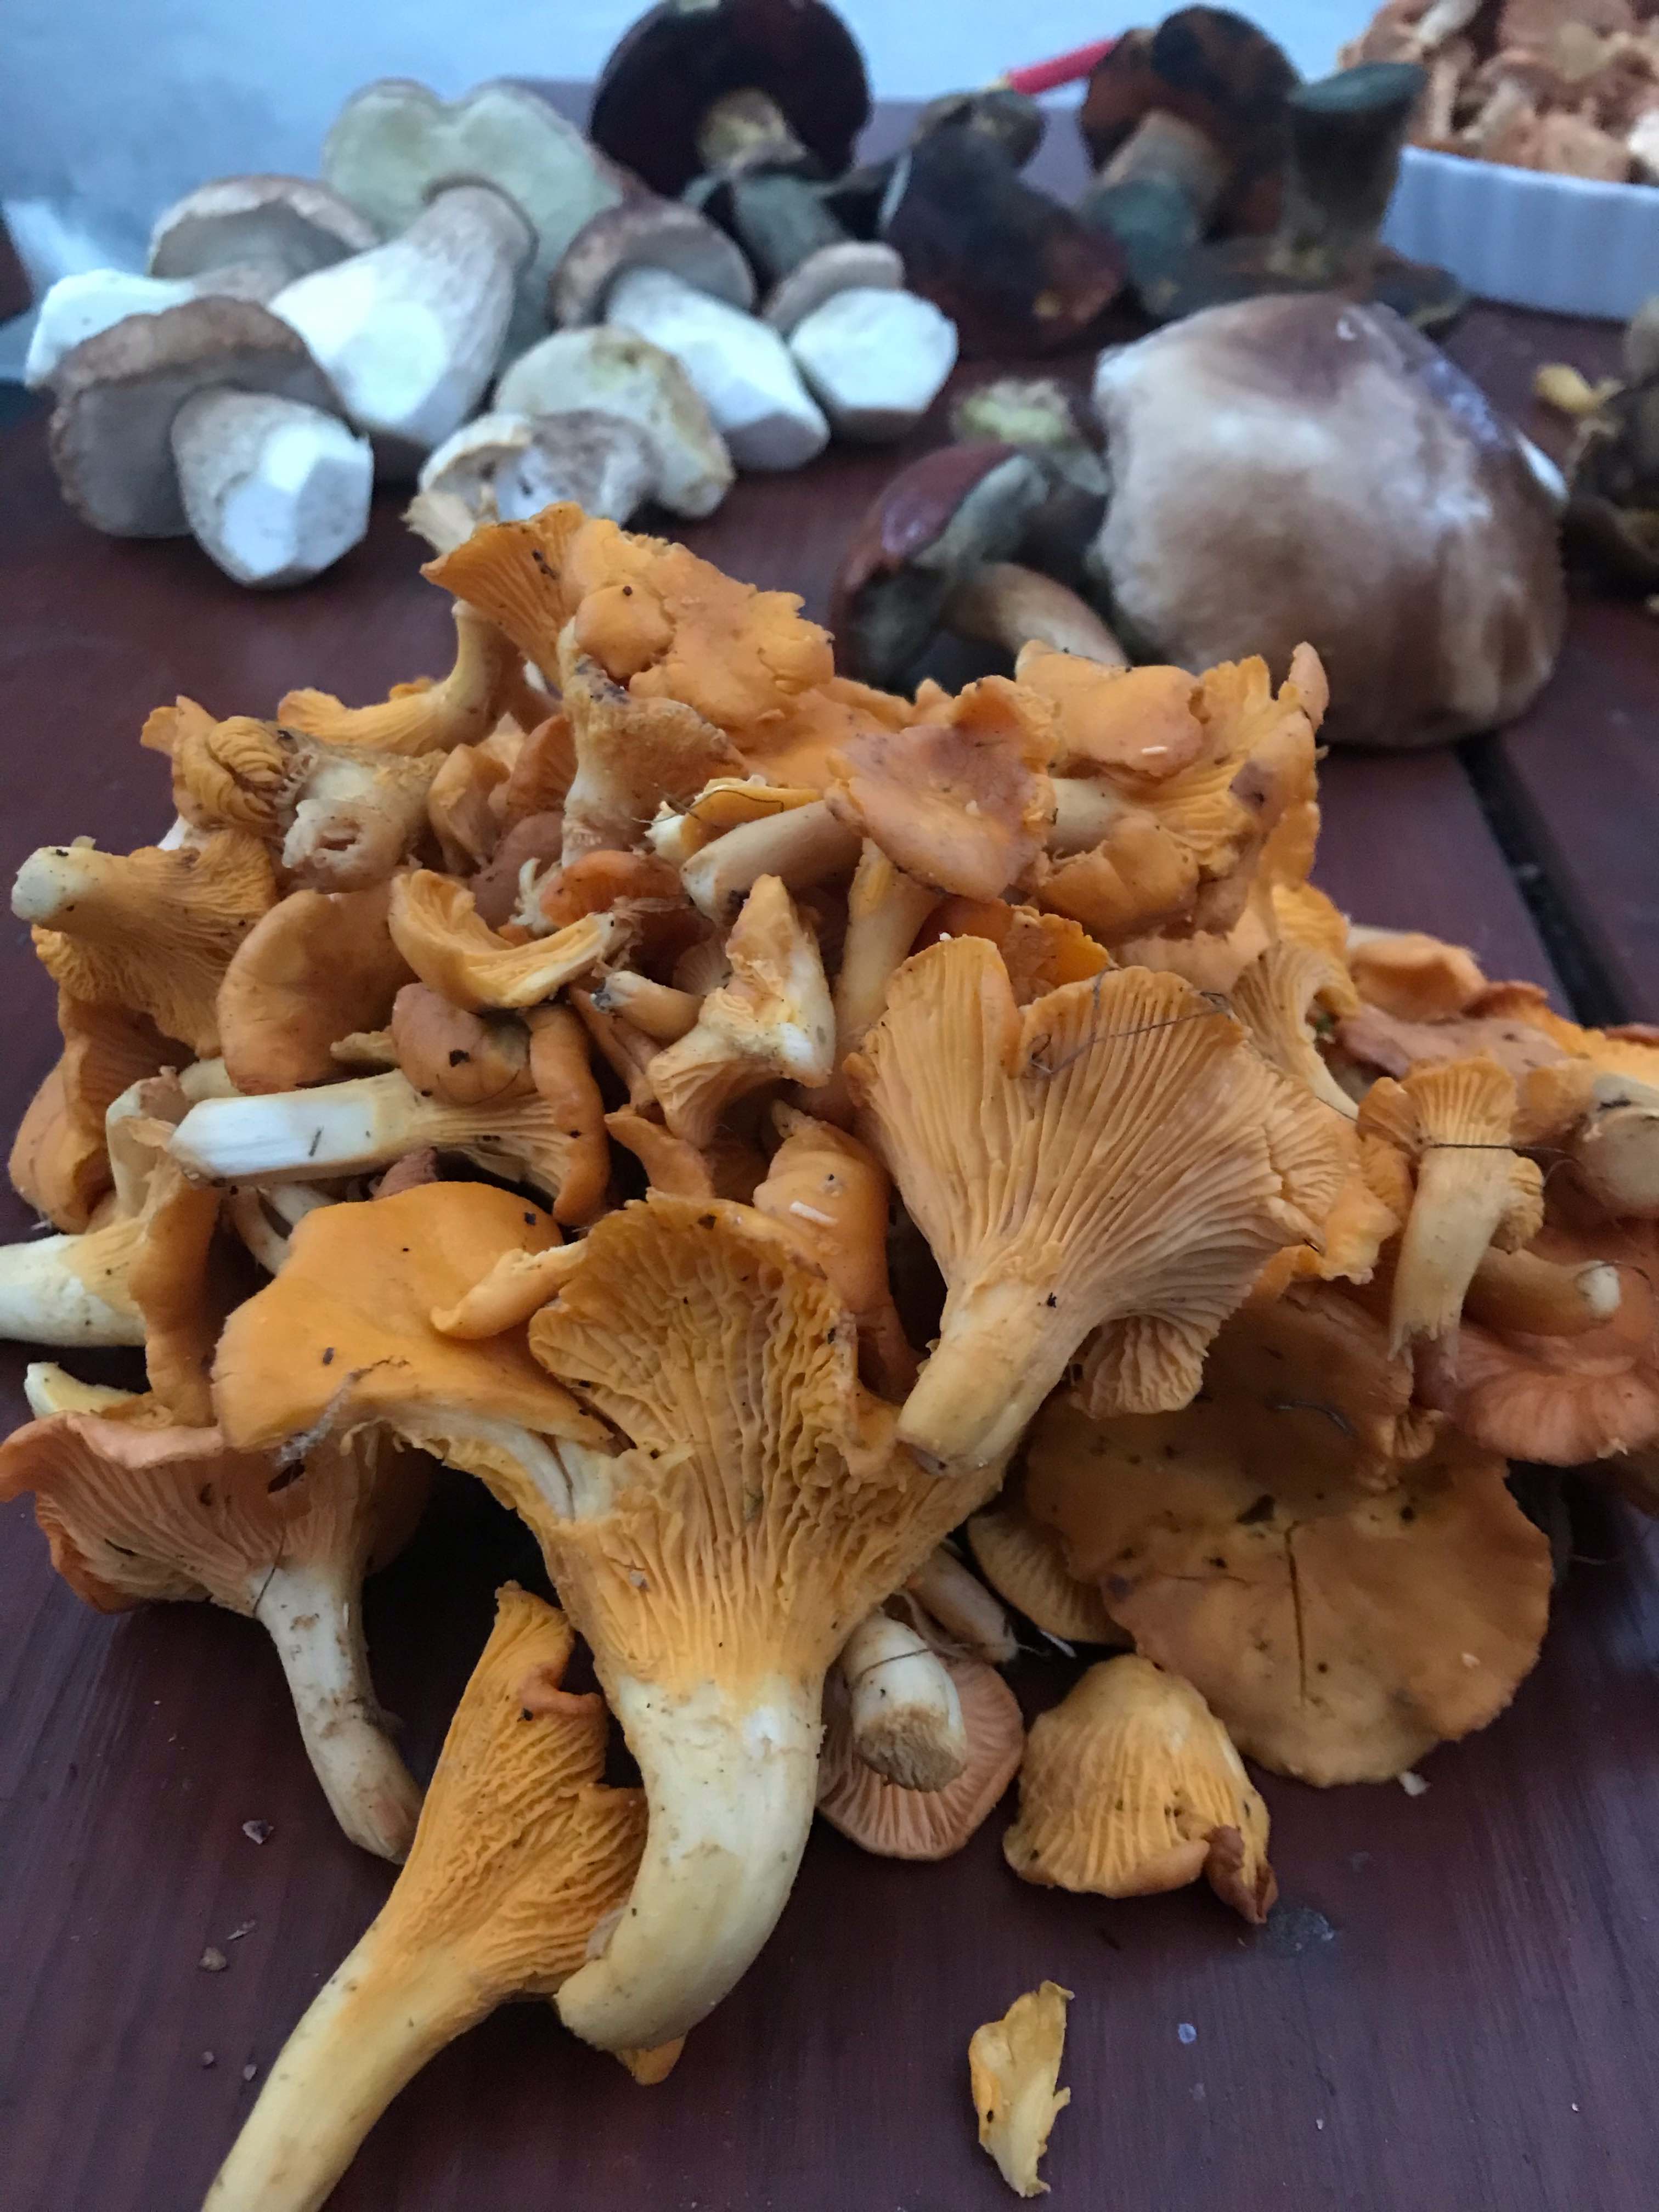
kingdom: Fungi
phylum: Basidiomycota
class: Agaricomycetes
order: Cantharellales
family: Hydnaceae
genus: Cantharellus
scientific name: Cantharellus cibarius
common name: almindelig kantarel
